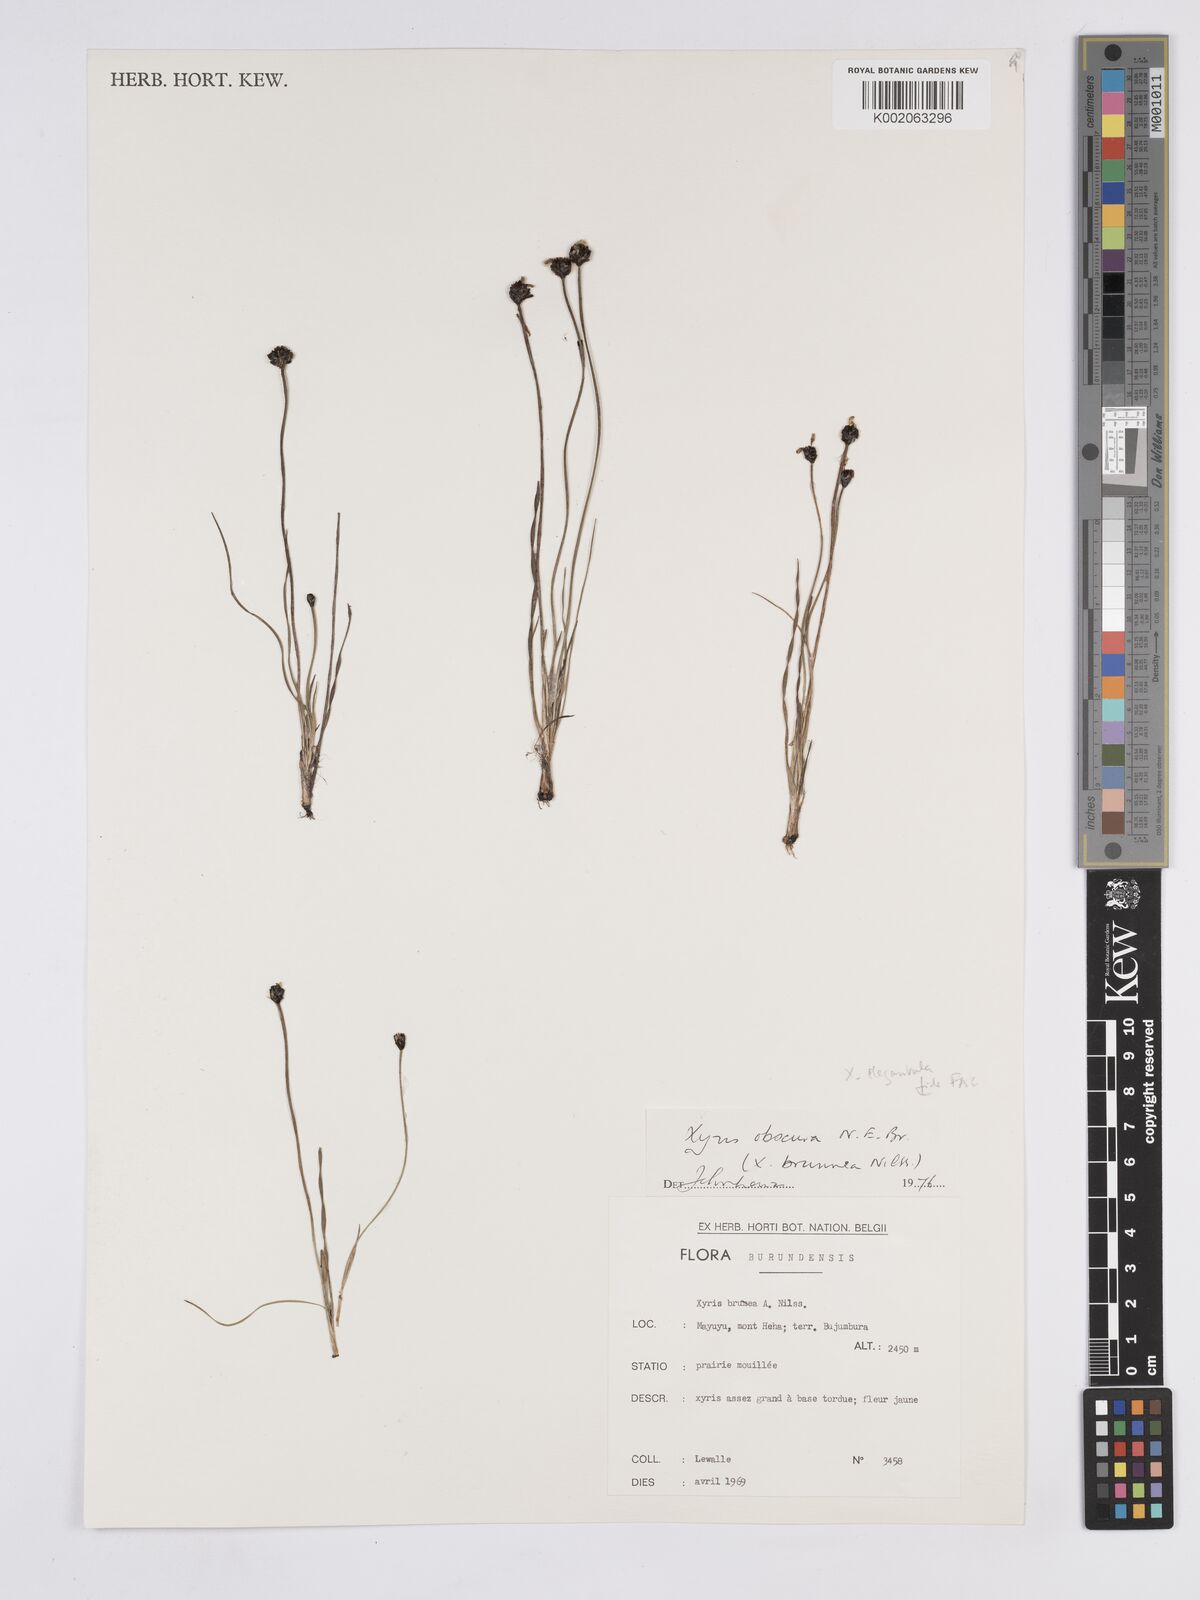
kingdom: Plantae
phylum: Tracheophyta
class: Liliopsida
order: Poales
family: Xyridaceae
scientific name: Xyridaceae
